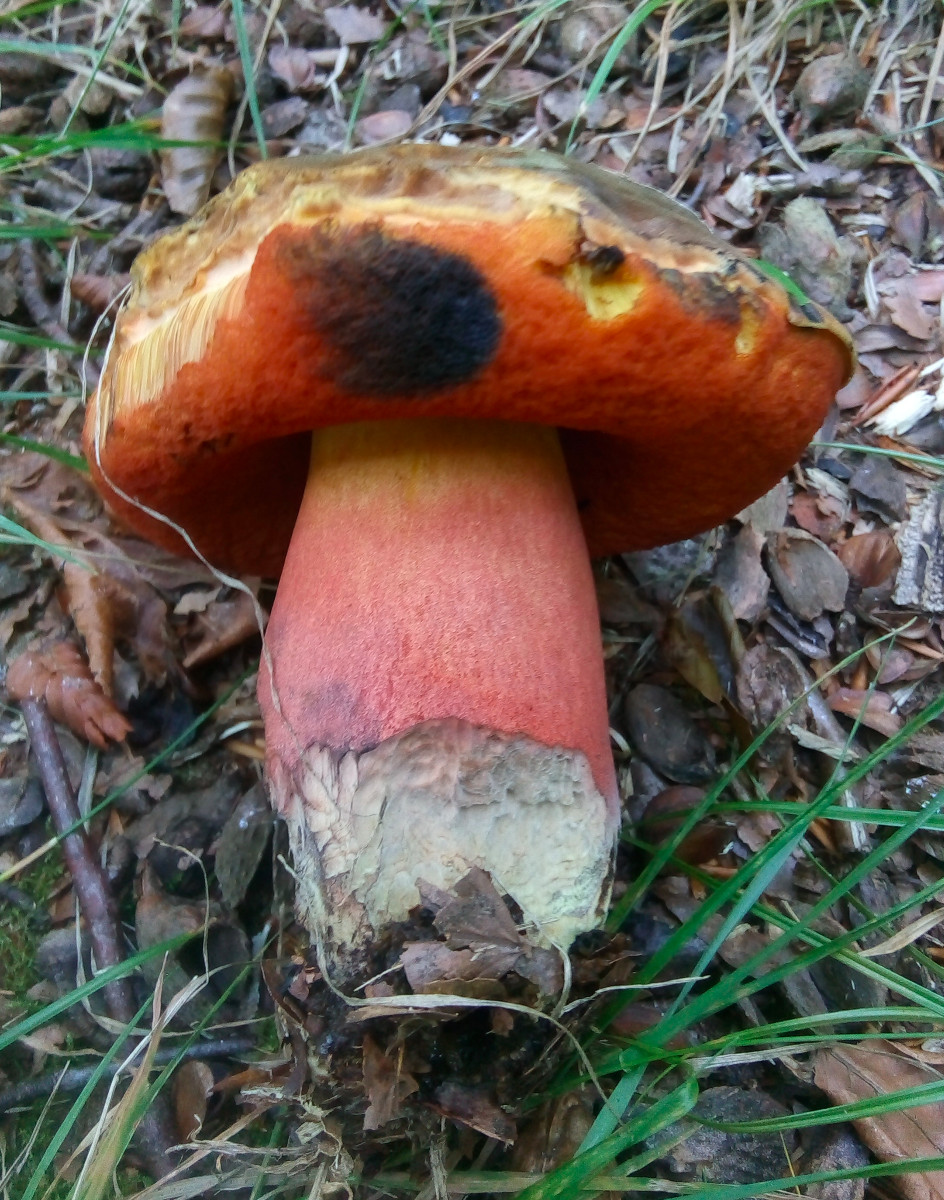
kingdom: Fungi
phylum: Basidiomycota
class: Agaricomycetes
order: Boletales
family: Boletaceae
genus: Neoboletus
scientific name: Neoboletus erythropus
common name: punktstokket indigorørhat
